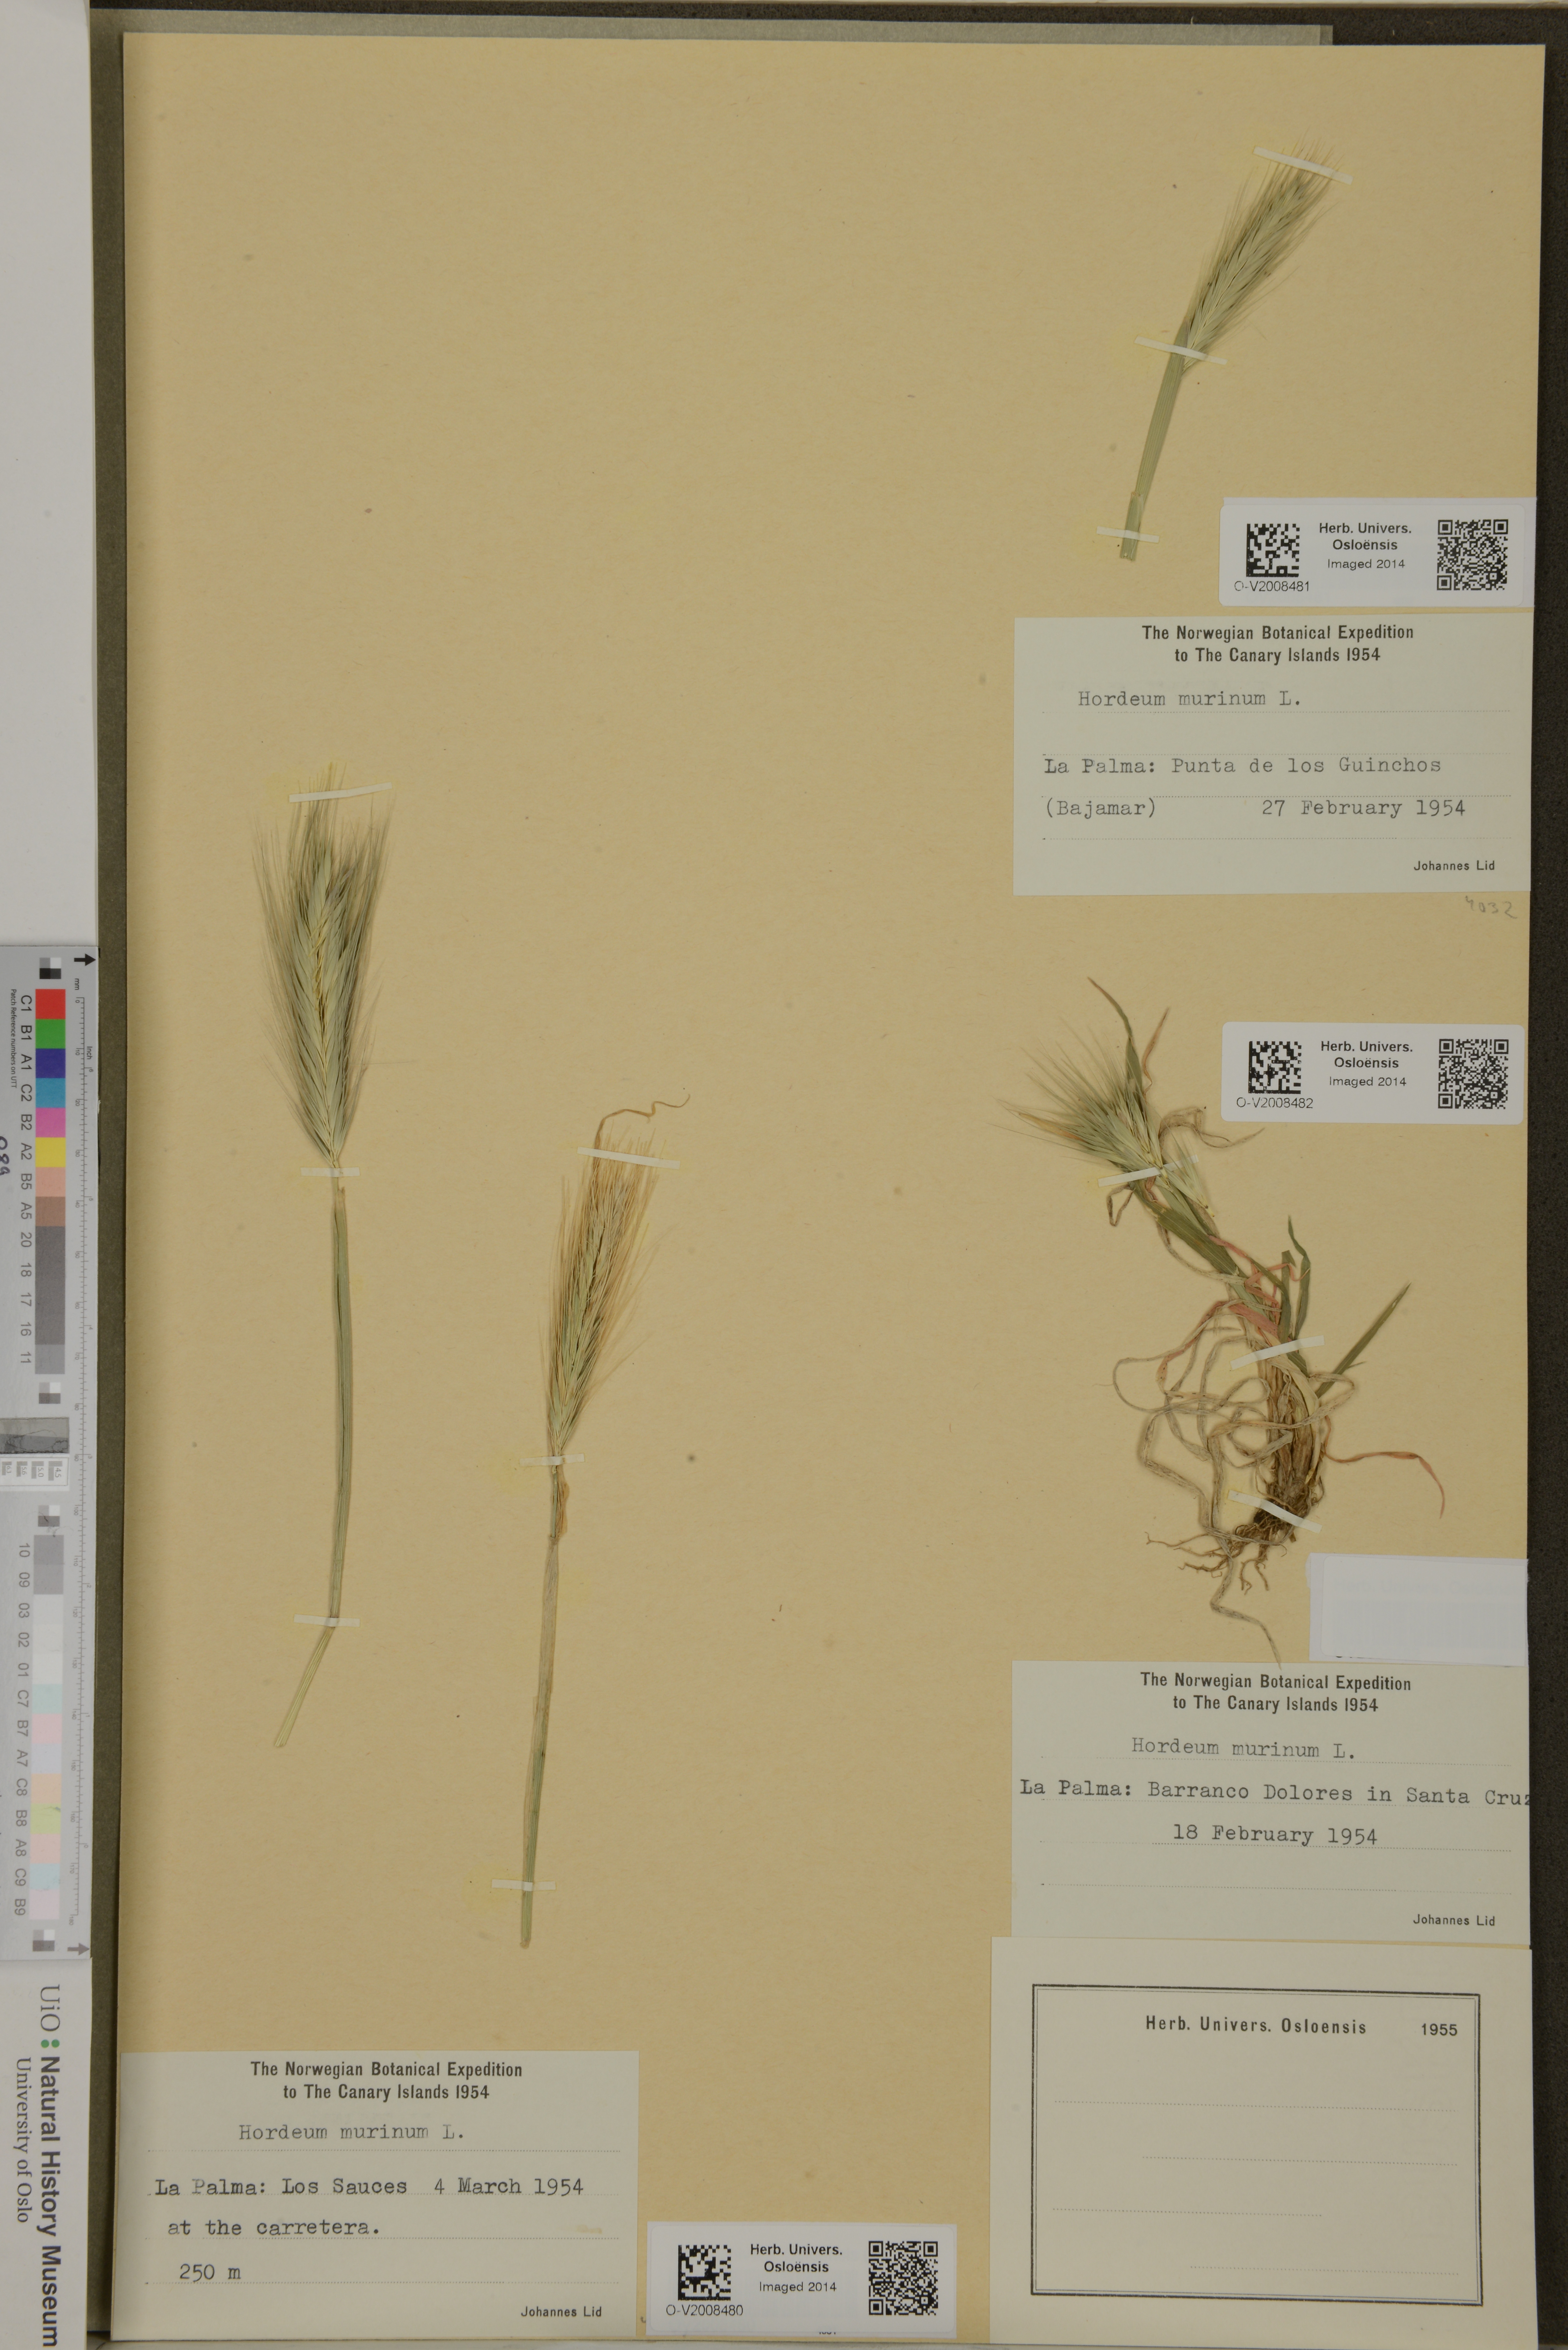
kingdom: Plantae
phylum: Tracheophyta
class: Liliopsida
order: Poales
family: Poaceae
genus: Hordeum
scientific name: Hordeum murinum
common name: Wall barley
